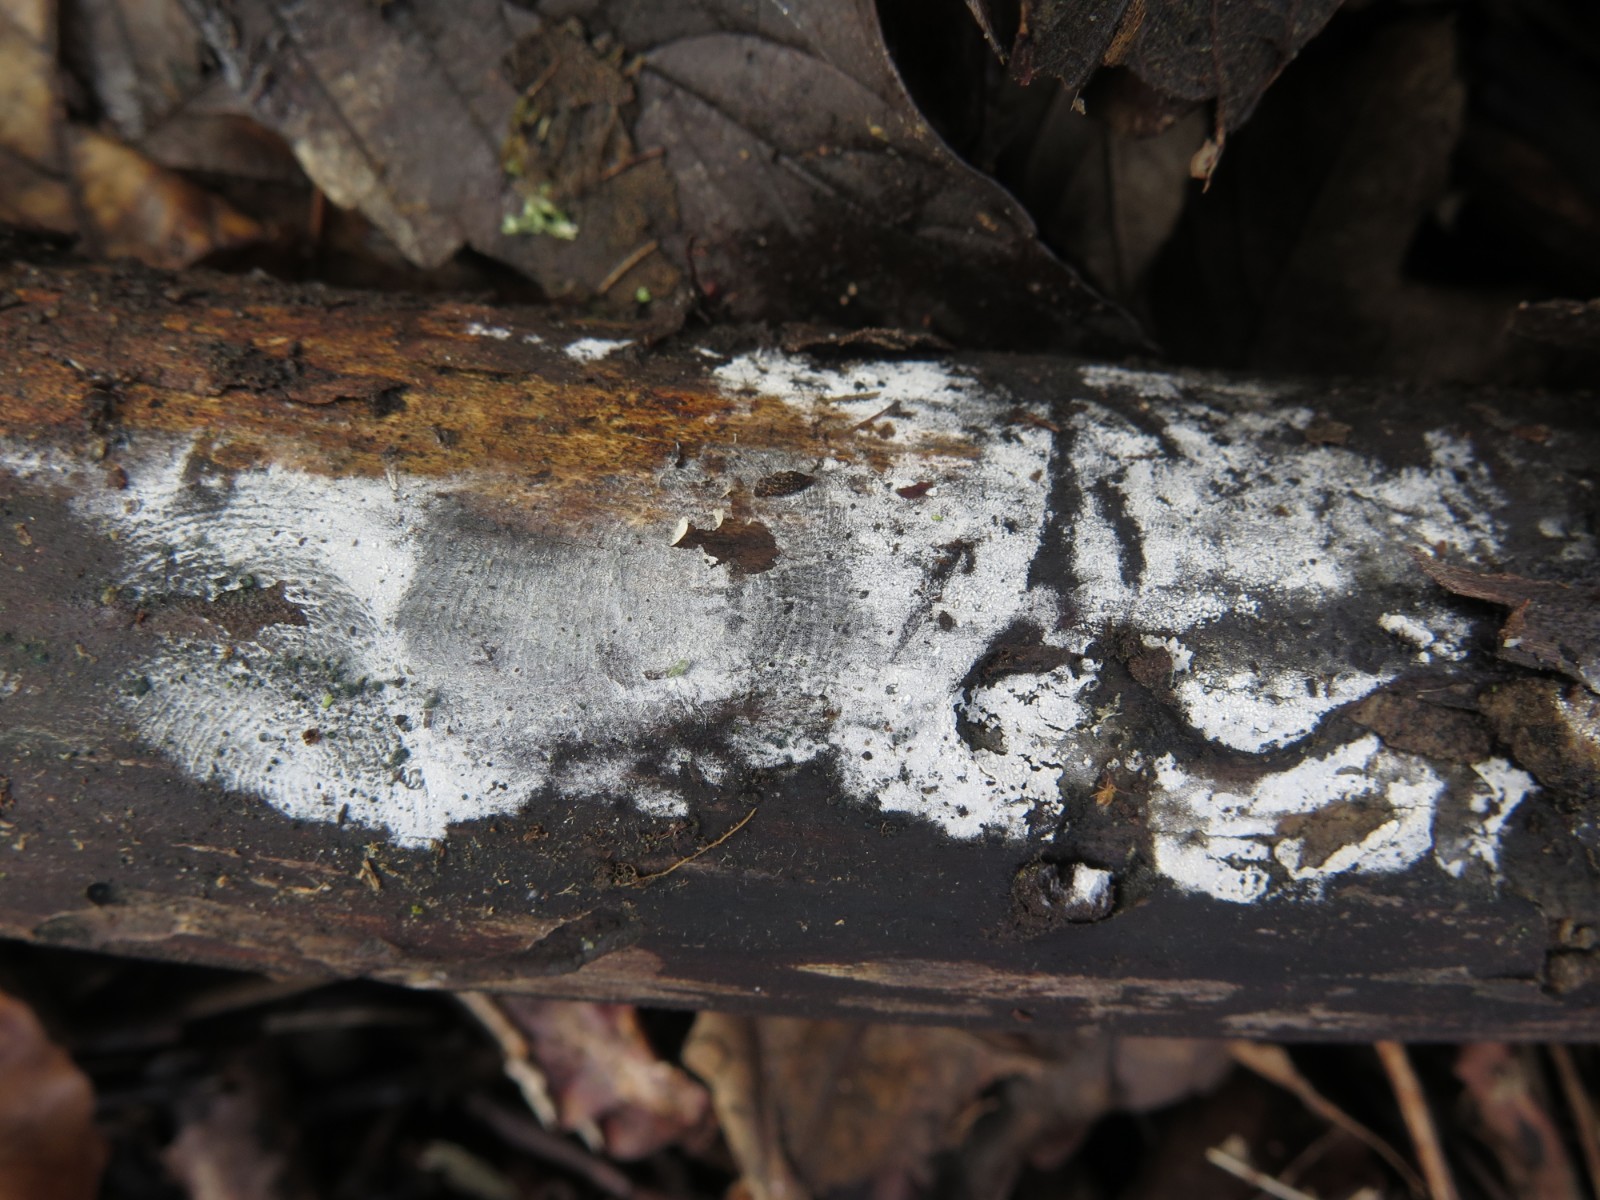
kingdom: Fungi
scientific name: Fungi
